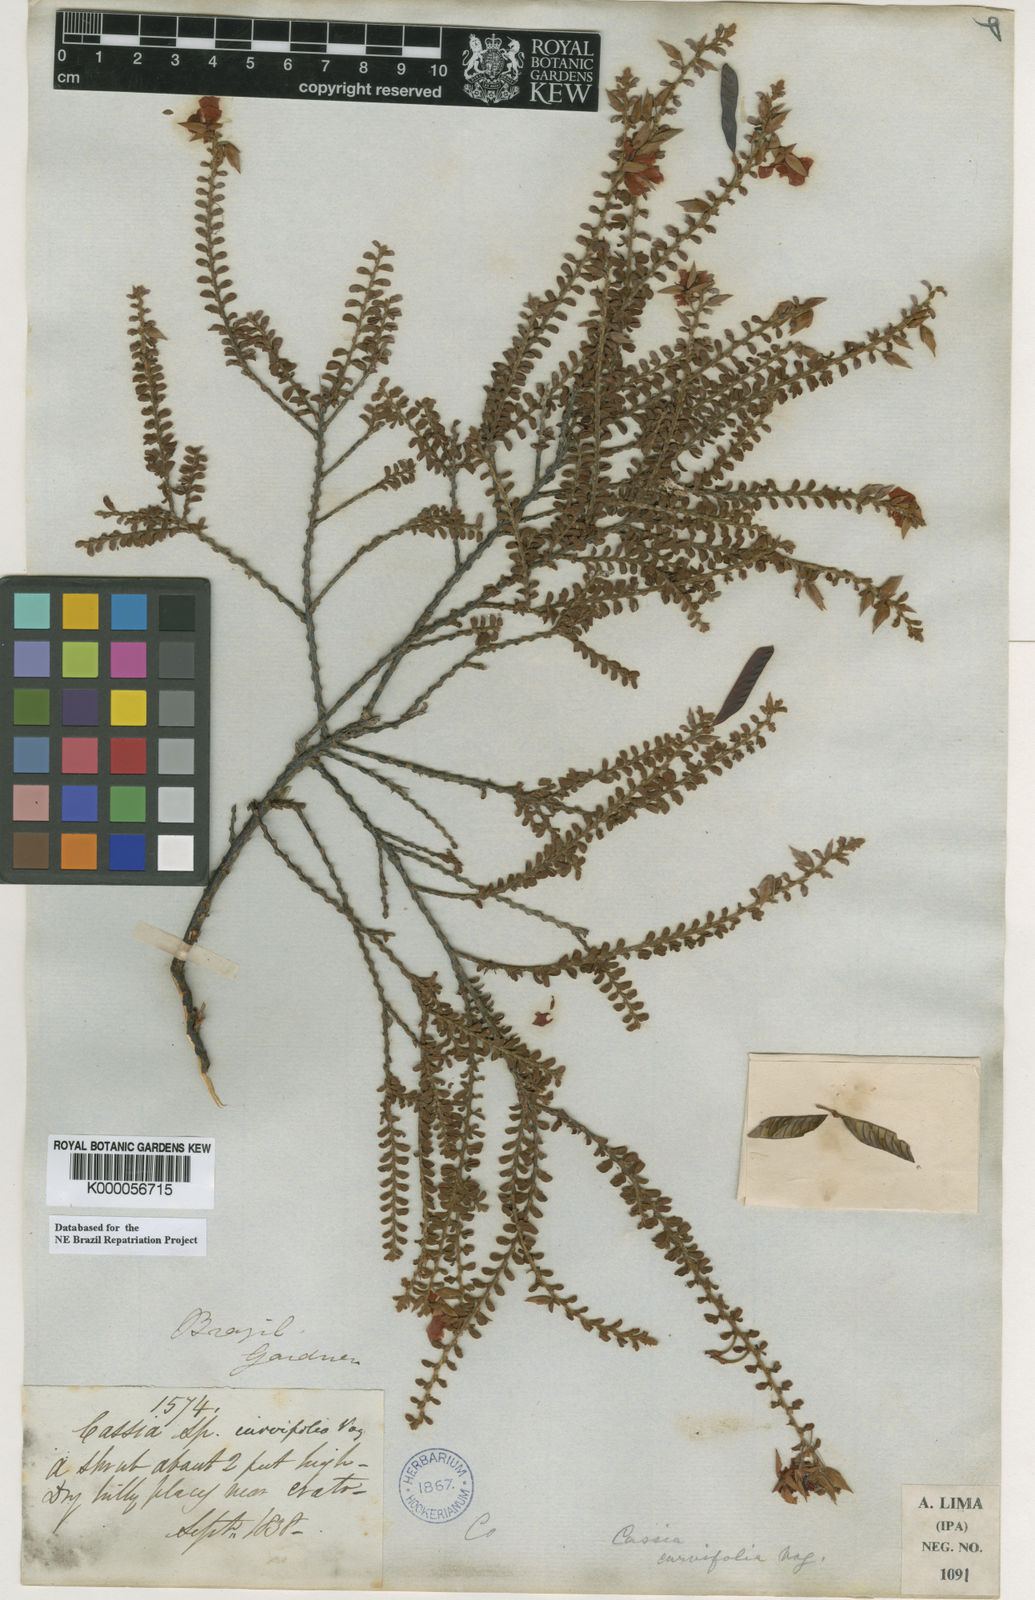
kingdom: Plantae
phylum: Tracheophyta
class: Magnoliopsida
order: Fabales
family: Fabaceae
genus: Chamaecrista
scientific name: Chamaecrista ramosa
